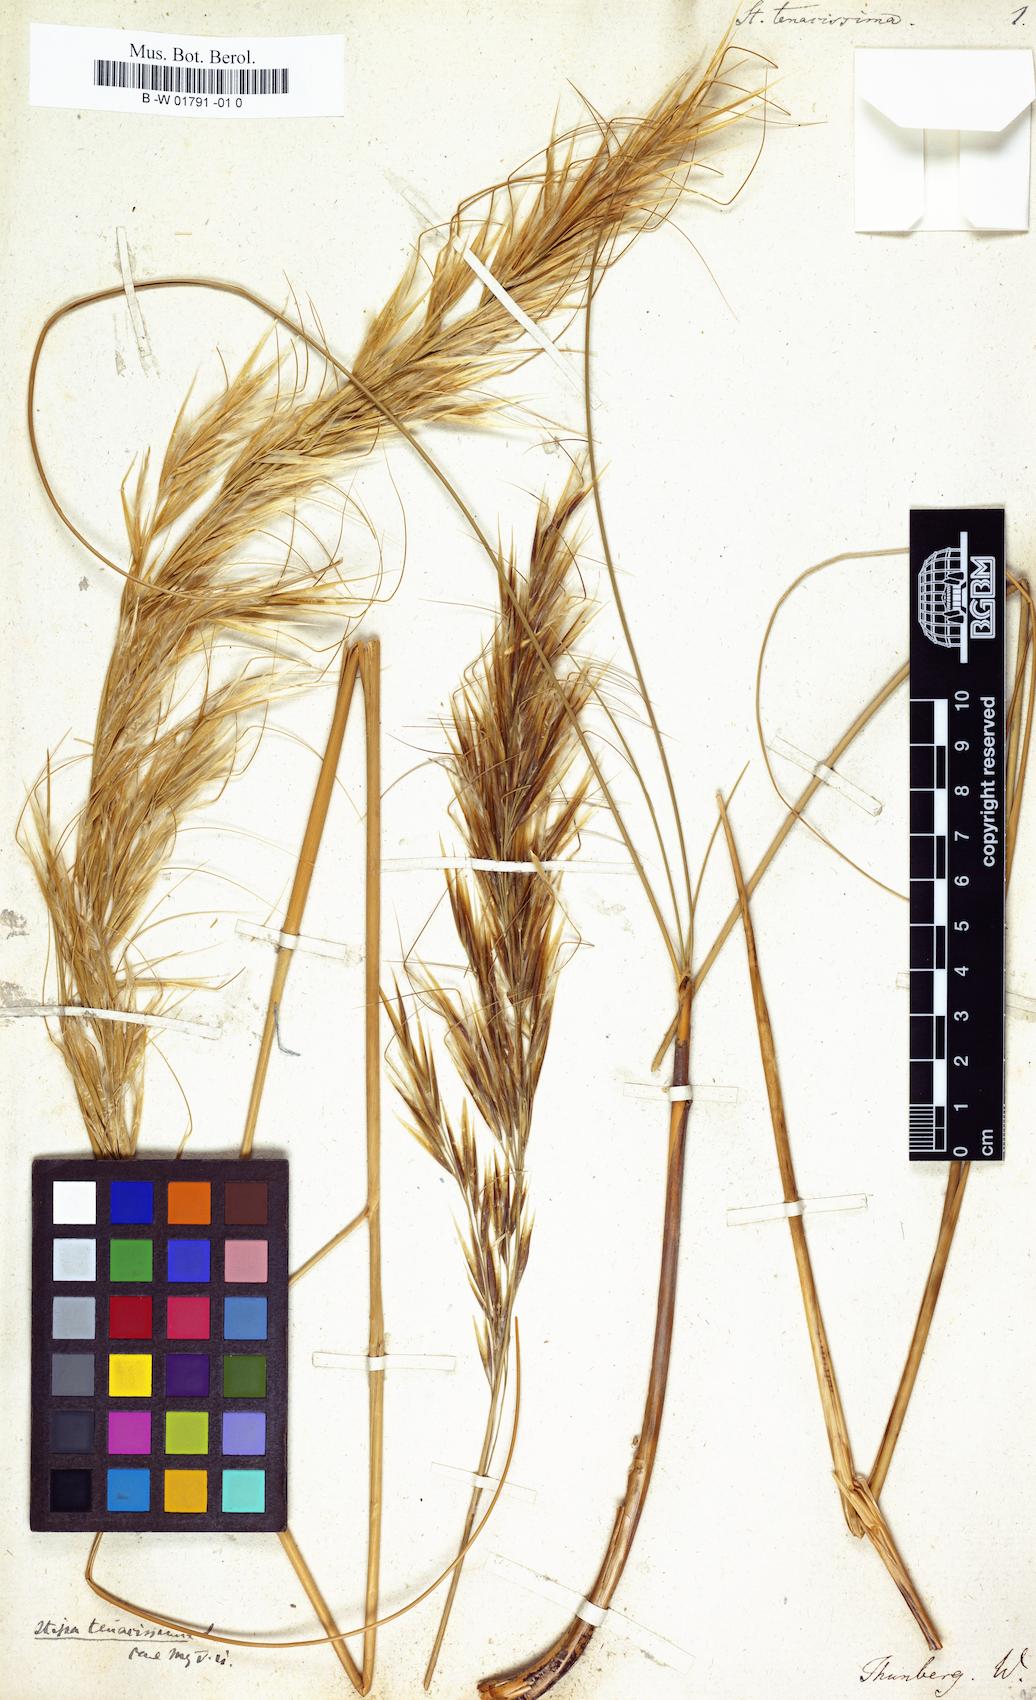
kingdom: Plantae
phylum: Tracheophyta
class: Liliopsida
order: Poales
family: Poaceae
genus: Macrochloa
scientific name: Macrochloa tenacissima
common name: Alfa grass
